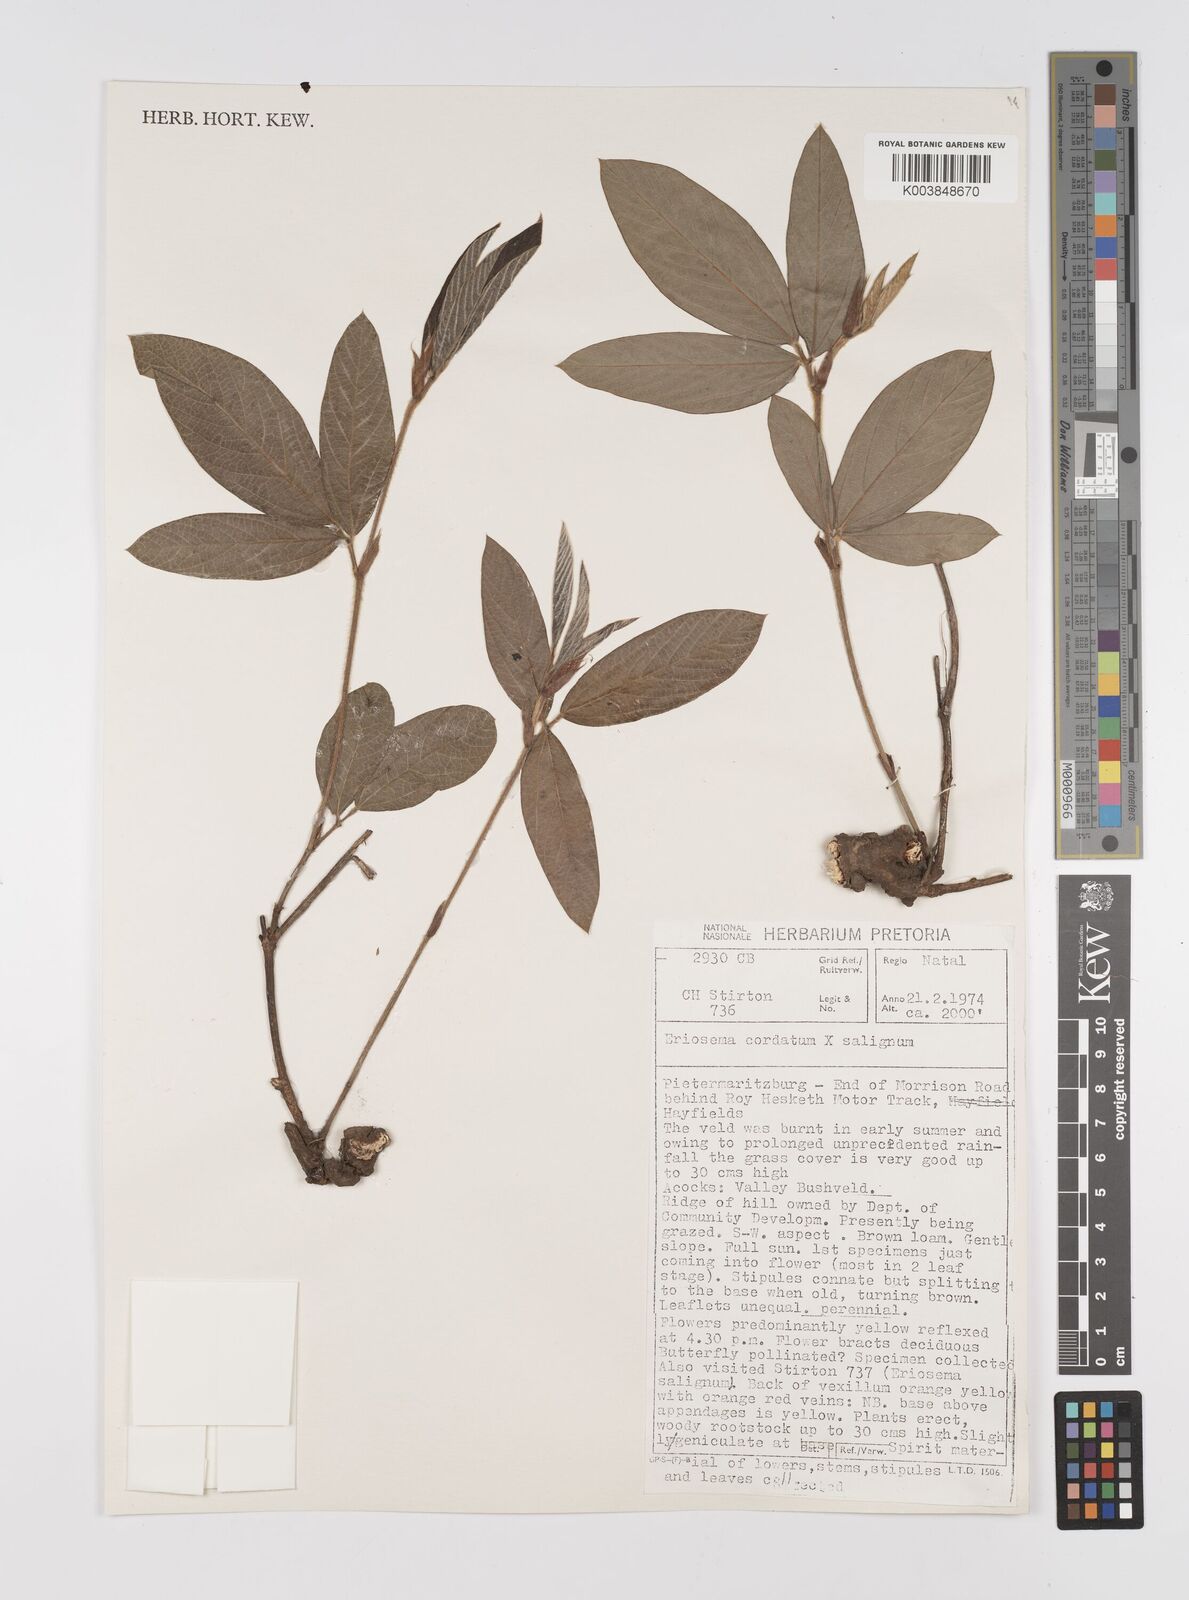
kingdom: Plantae
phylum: Tracheophyta
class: Magnoliopsida
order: Fabales
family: Fabaceae
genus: Eriosema
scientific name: Eriosema cordatum
